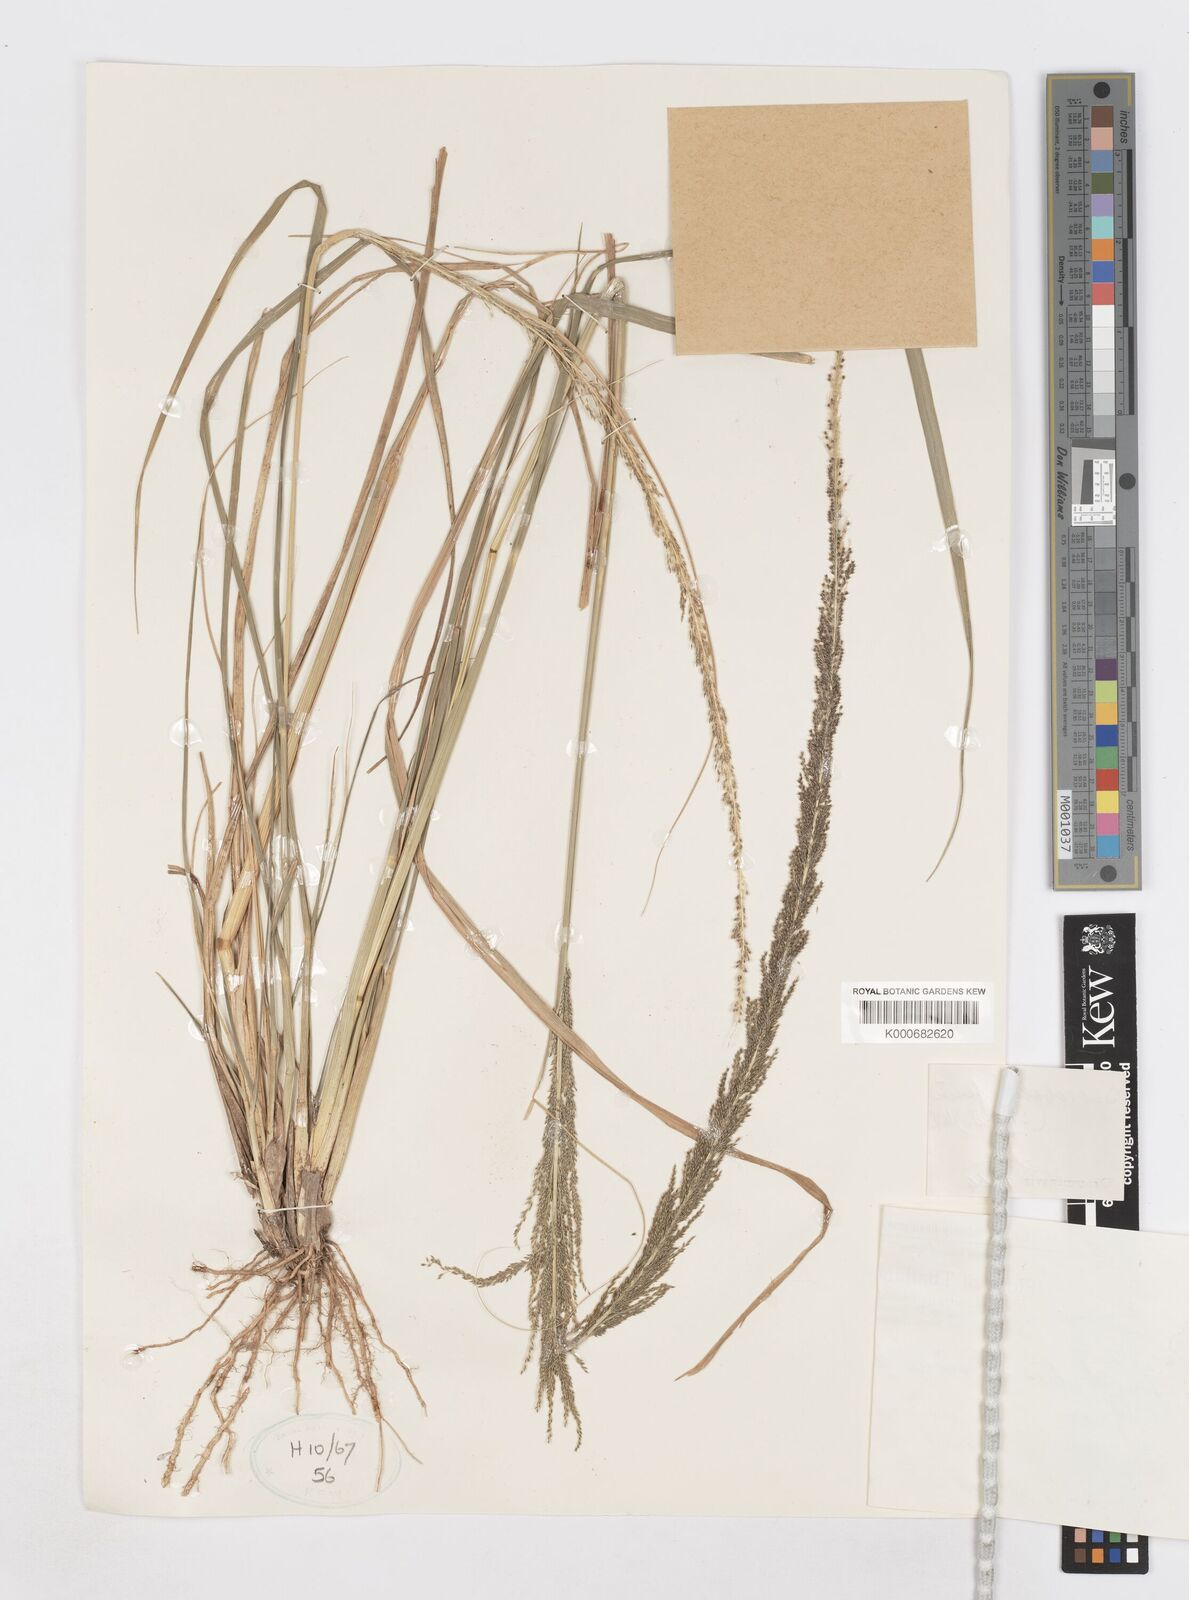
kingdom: Plantae
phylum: Tracheophyta
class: Liliopsida
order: Poales
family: Poaceae
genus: Sporobolus
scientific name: Sporobolus fertilis
